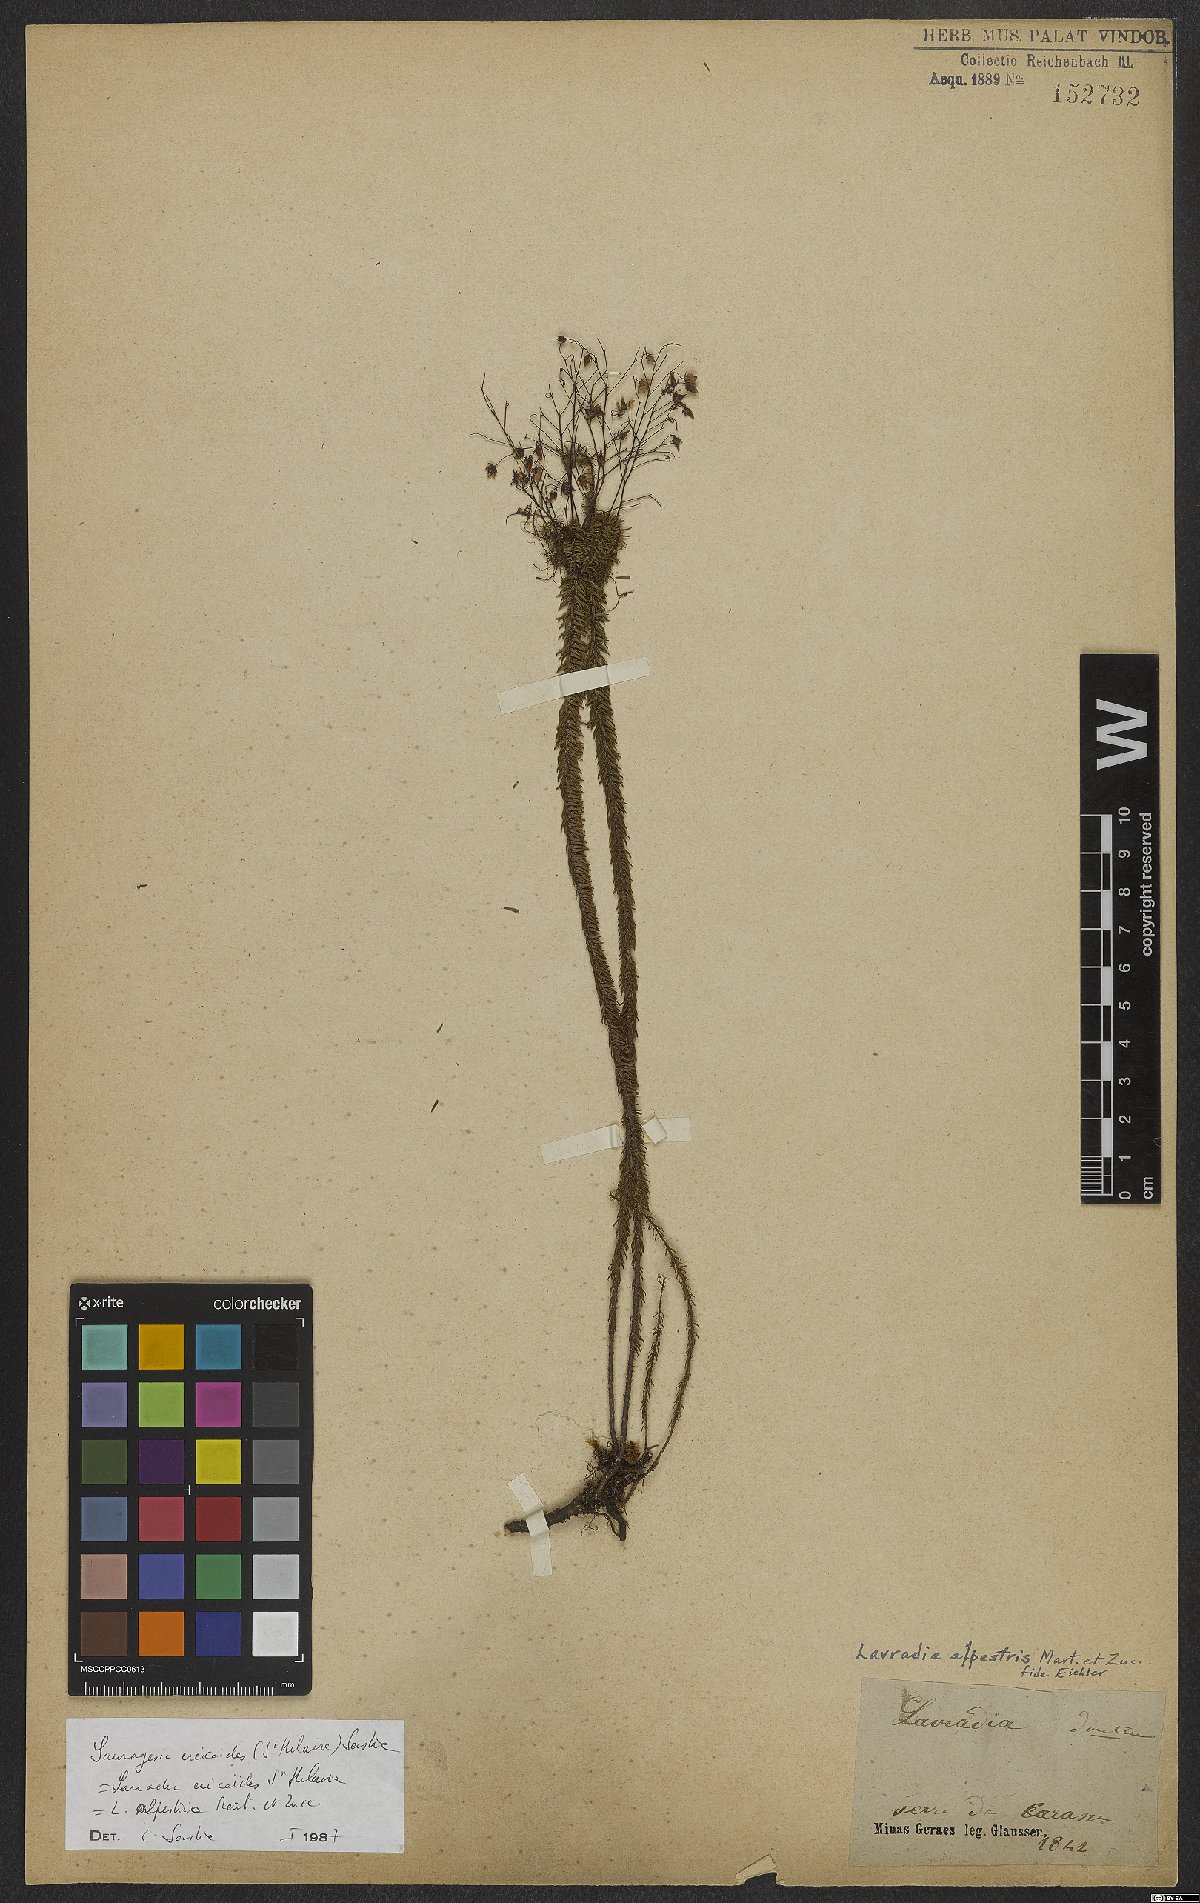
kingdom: Plantae
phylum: Tracheophyta
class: Magnoliopsida
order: Malpighiales
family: Ochnaceae
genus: Sauvagesia
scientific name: Sauvagesia ericoides
